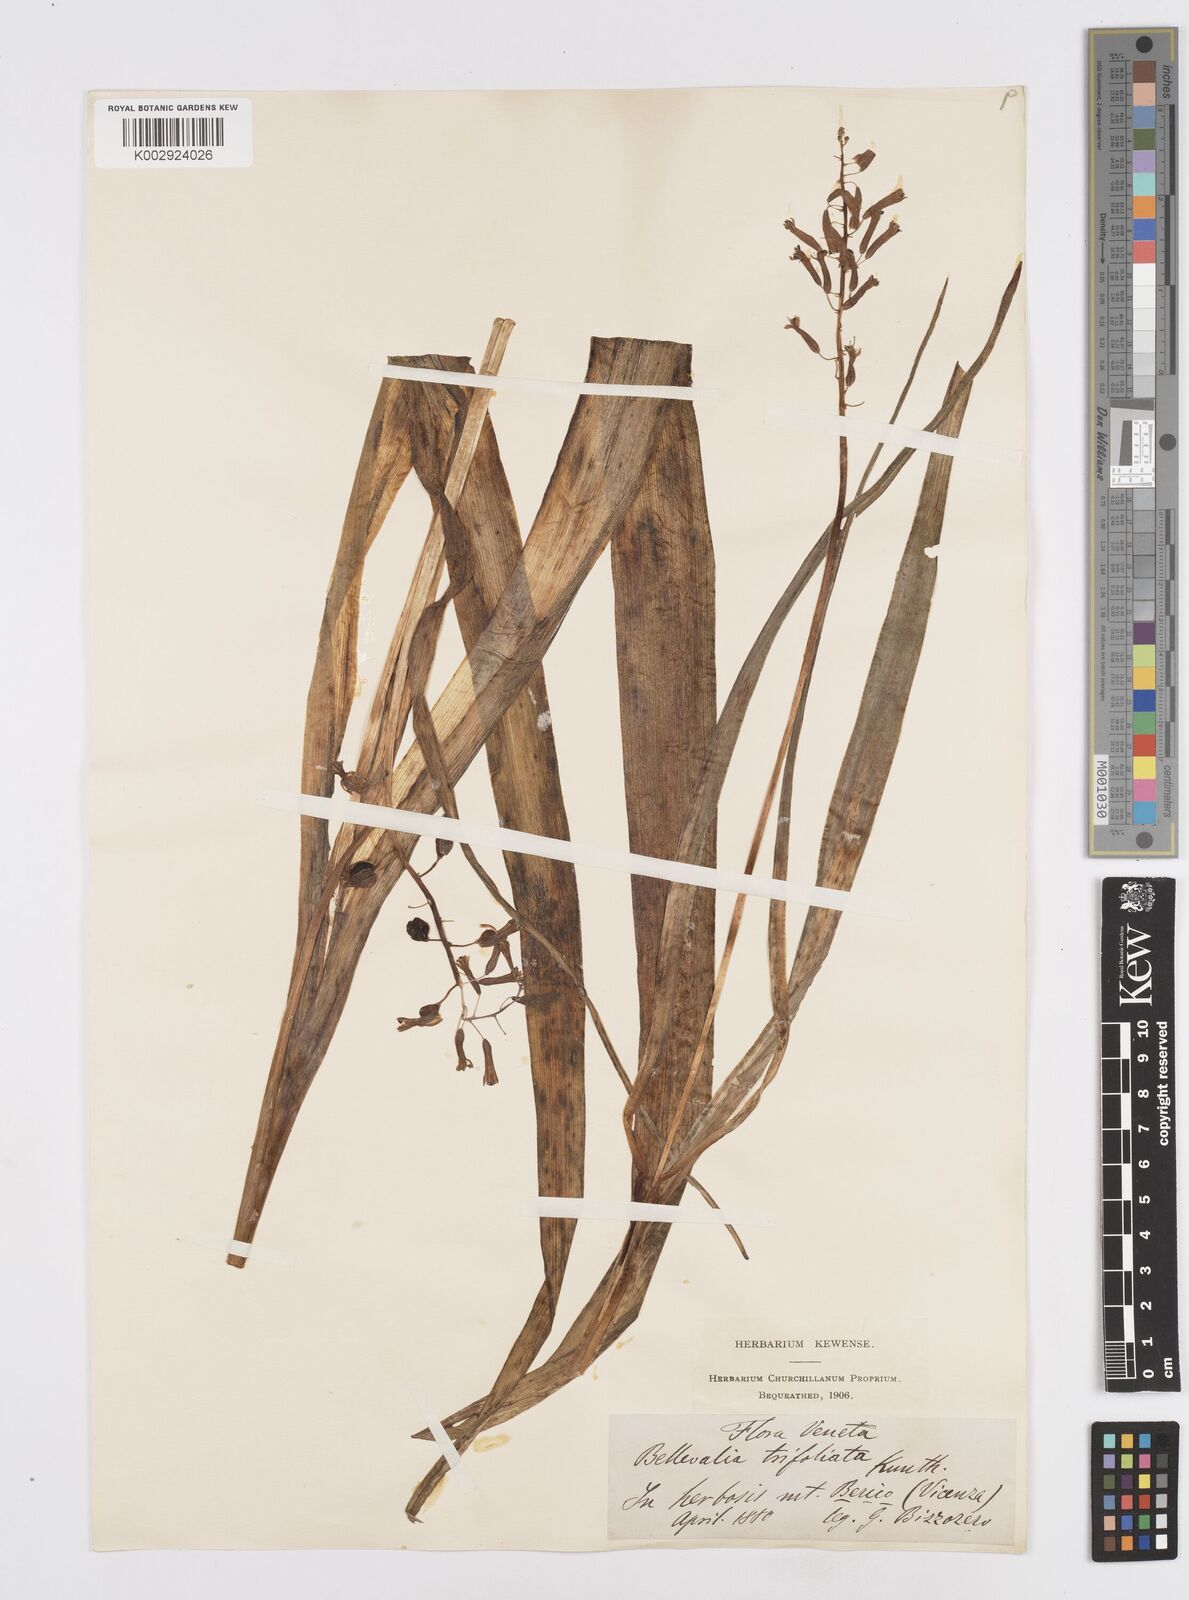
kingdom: Plantae
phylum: Tracheophyta
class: Liliopsida
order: Asparagales
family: Asparagaceae
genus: Bellevalia
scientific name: Bellevalia trifoliata
